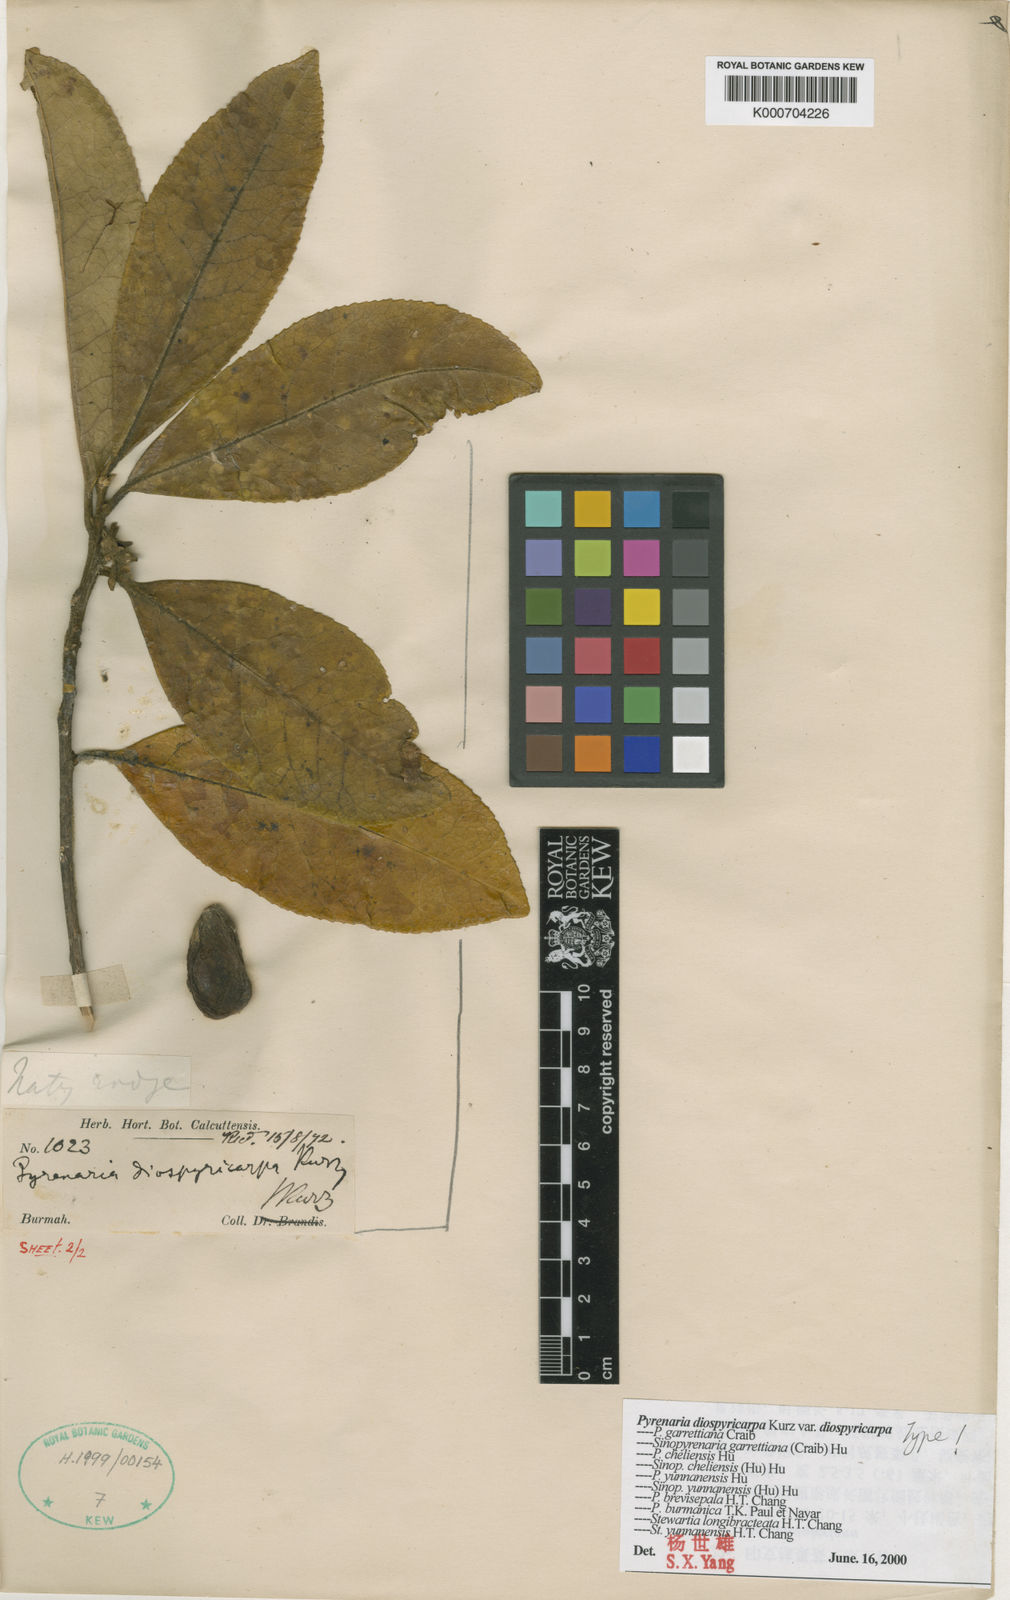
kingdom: Plantae
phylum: Tracheophyta
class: Magnoliopsida
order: Ericales
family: Theaceae
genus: Pyrenaria
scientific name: Pyrenaria diospyricarpa
